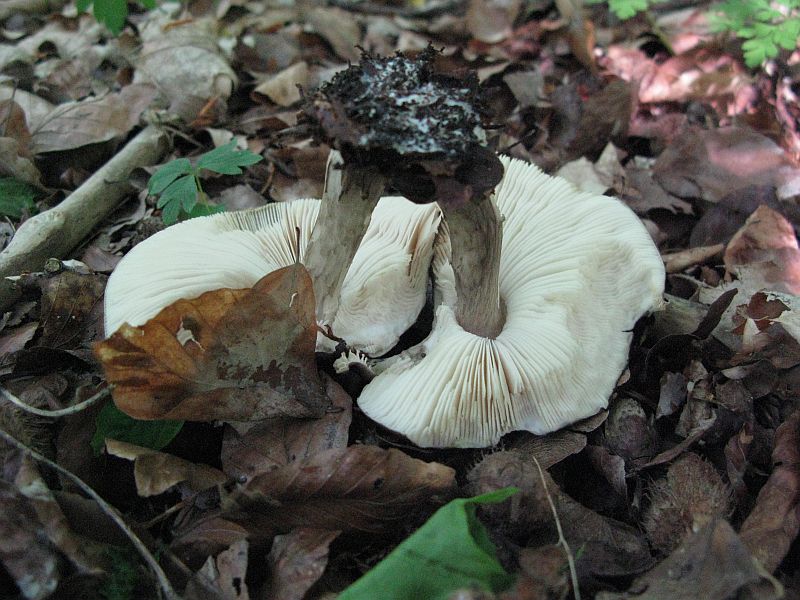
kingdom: Fungi
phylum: Basidiomycota
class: Agaricomycetes
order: Agaricales
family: Pluteaceae
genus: Pluteus
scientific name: Pluteus cervinus
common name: sodfarvet skærmhat
